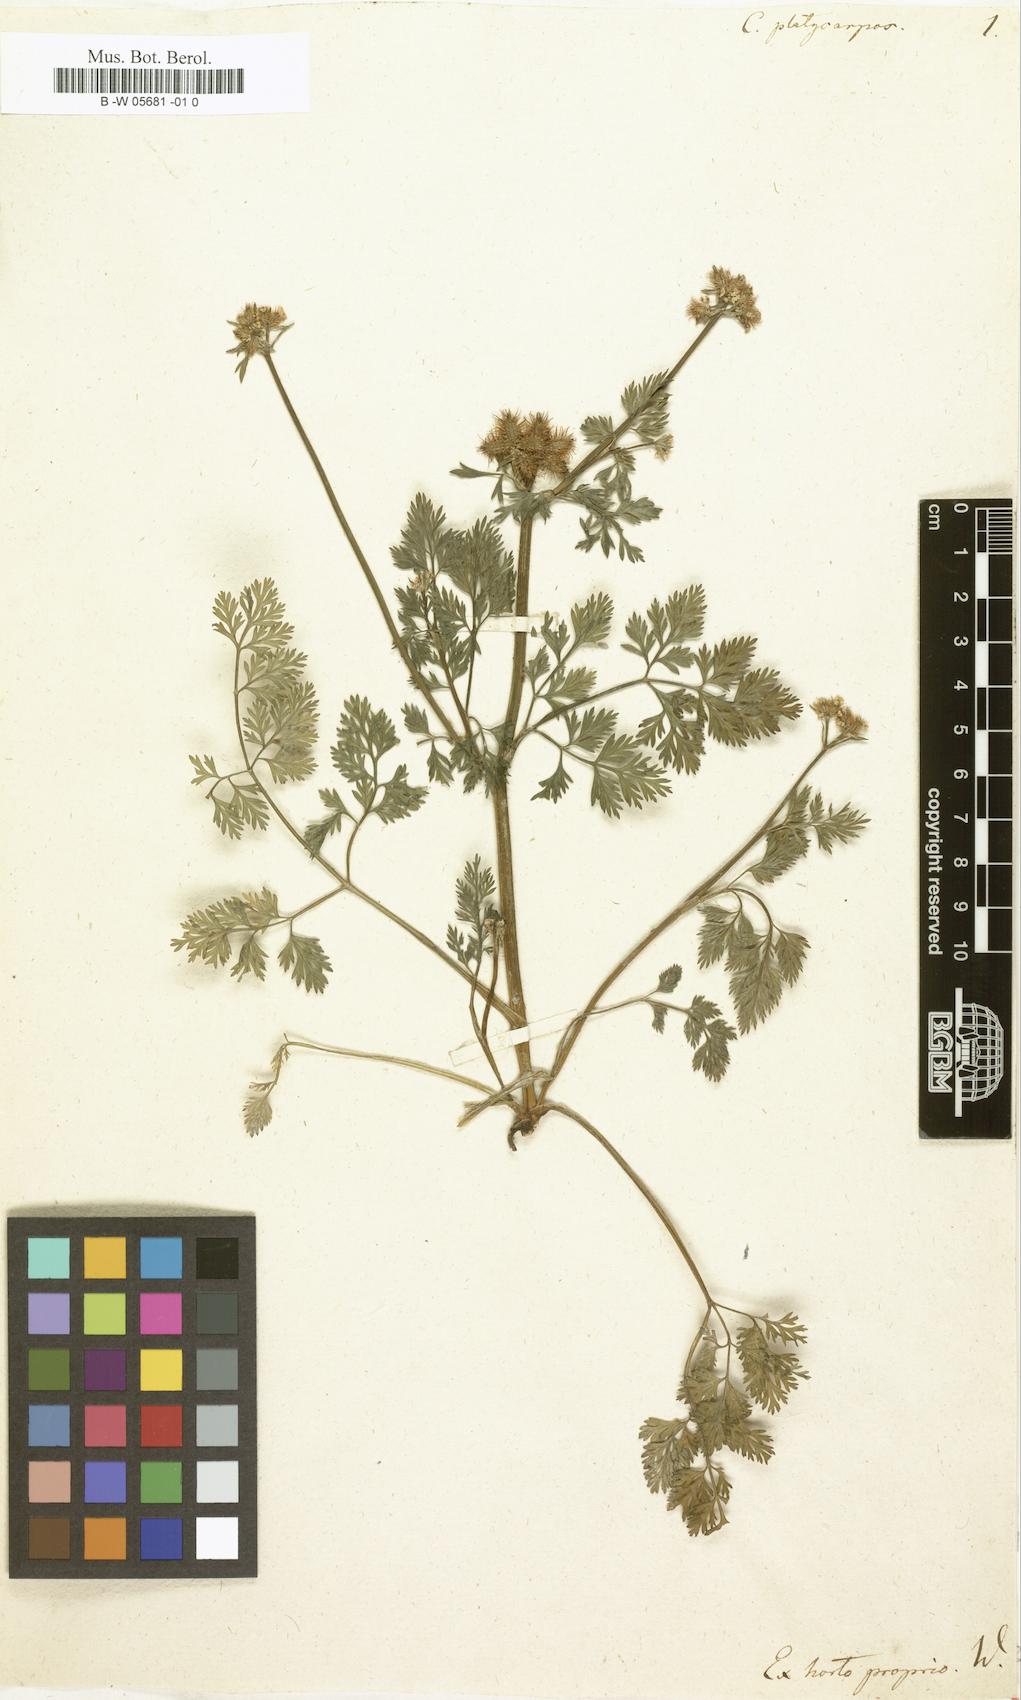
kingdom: Plantae
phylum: Tracheophyta
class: Magnoliopsida
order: Apiales
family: Apiaceae
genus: Caucalis
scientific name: Caucalis platycarpos
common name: Small bur-parsley
